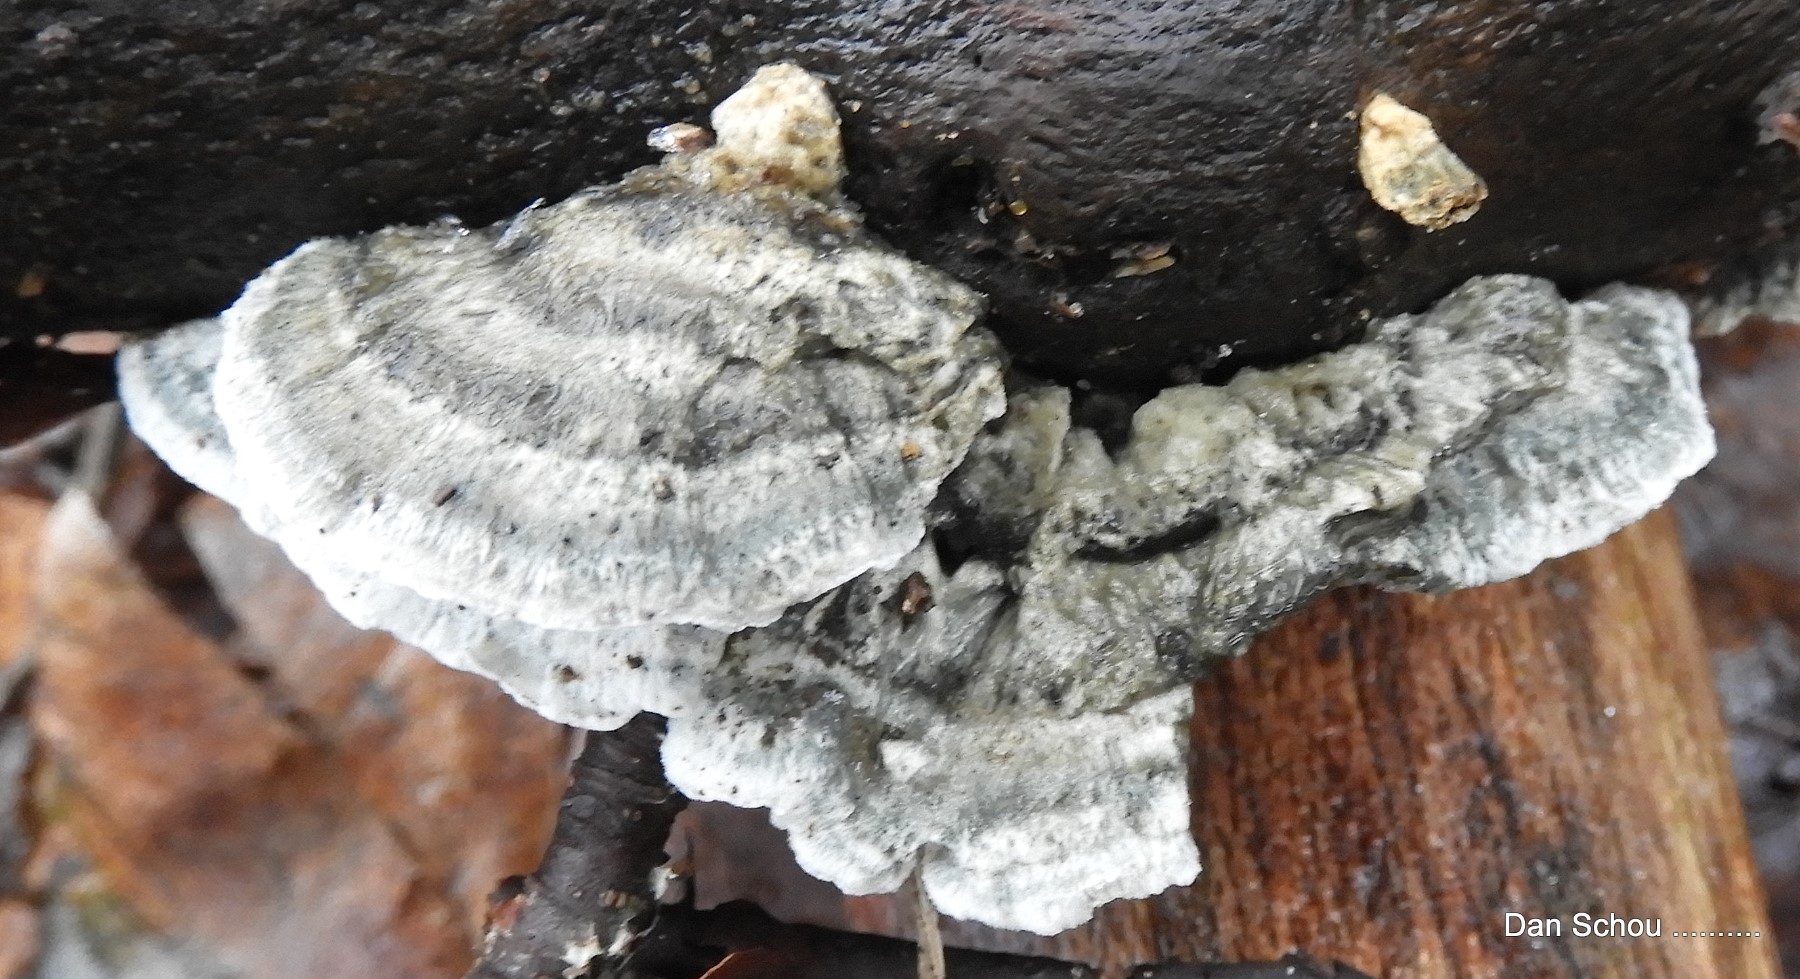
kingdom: Fungi
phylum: Basidiomycota
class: Agaricomycetes
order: Polyporales
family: Polyporaceae
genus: Cyanosporus
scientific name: Cyanosporus alni
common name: blegblå kødporesvamp
